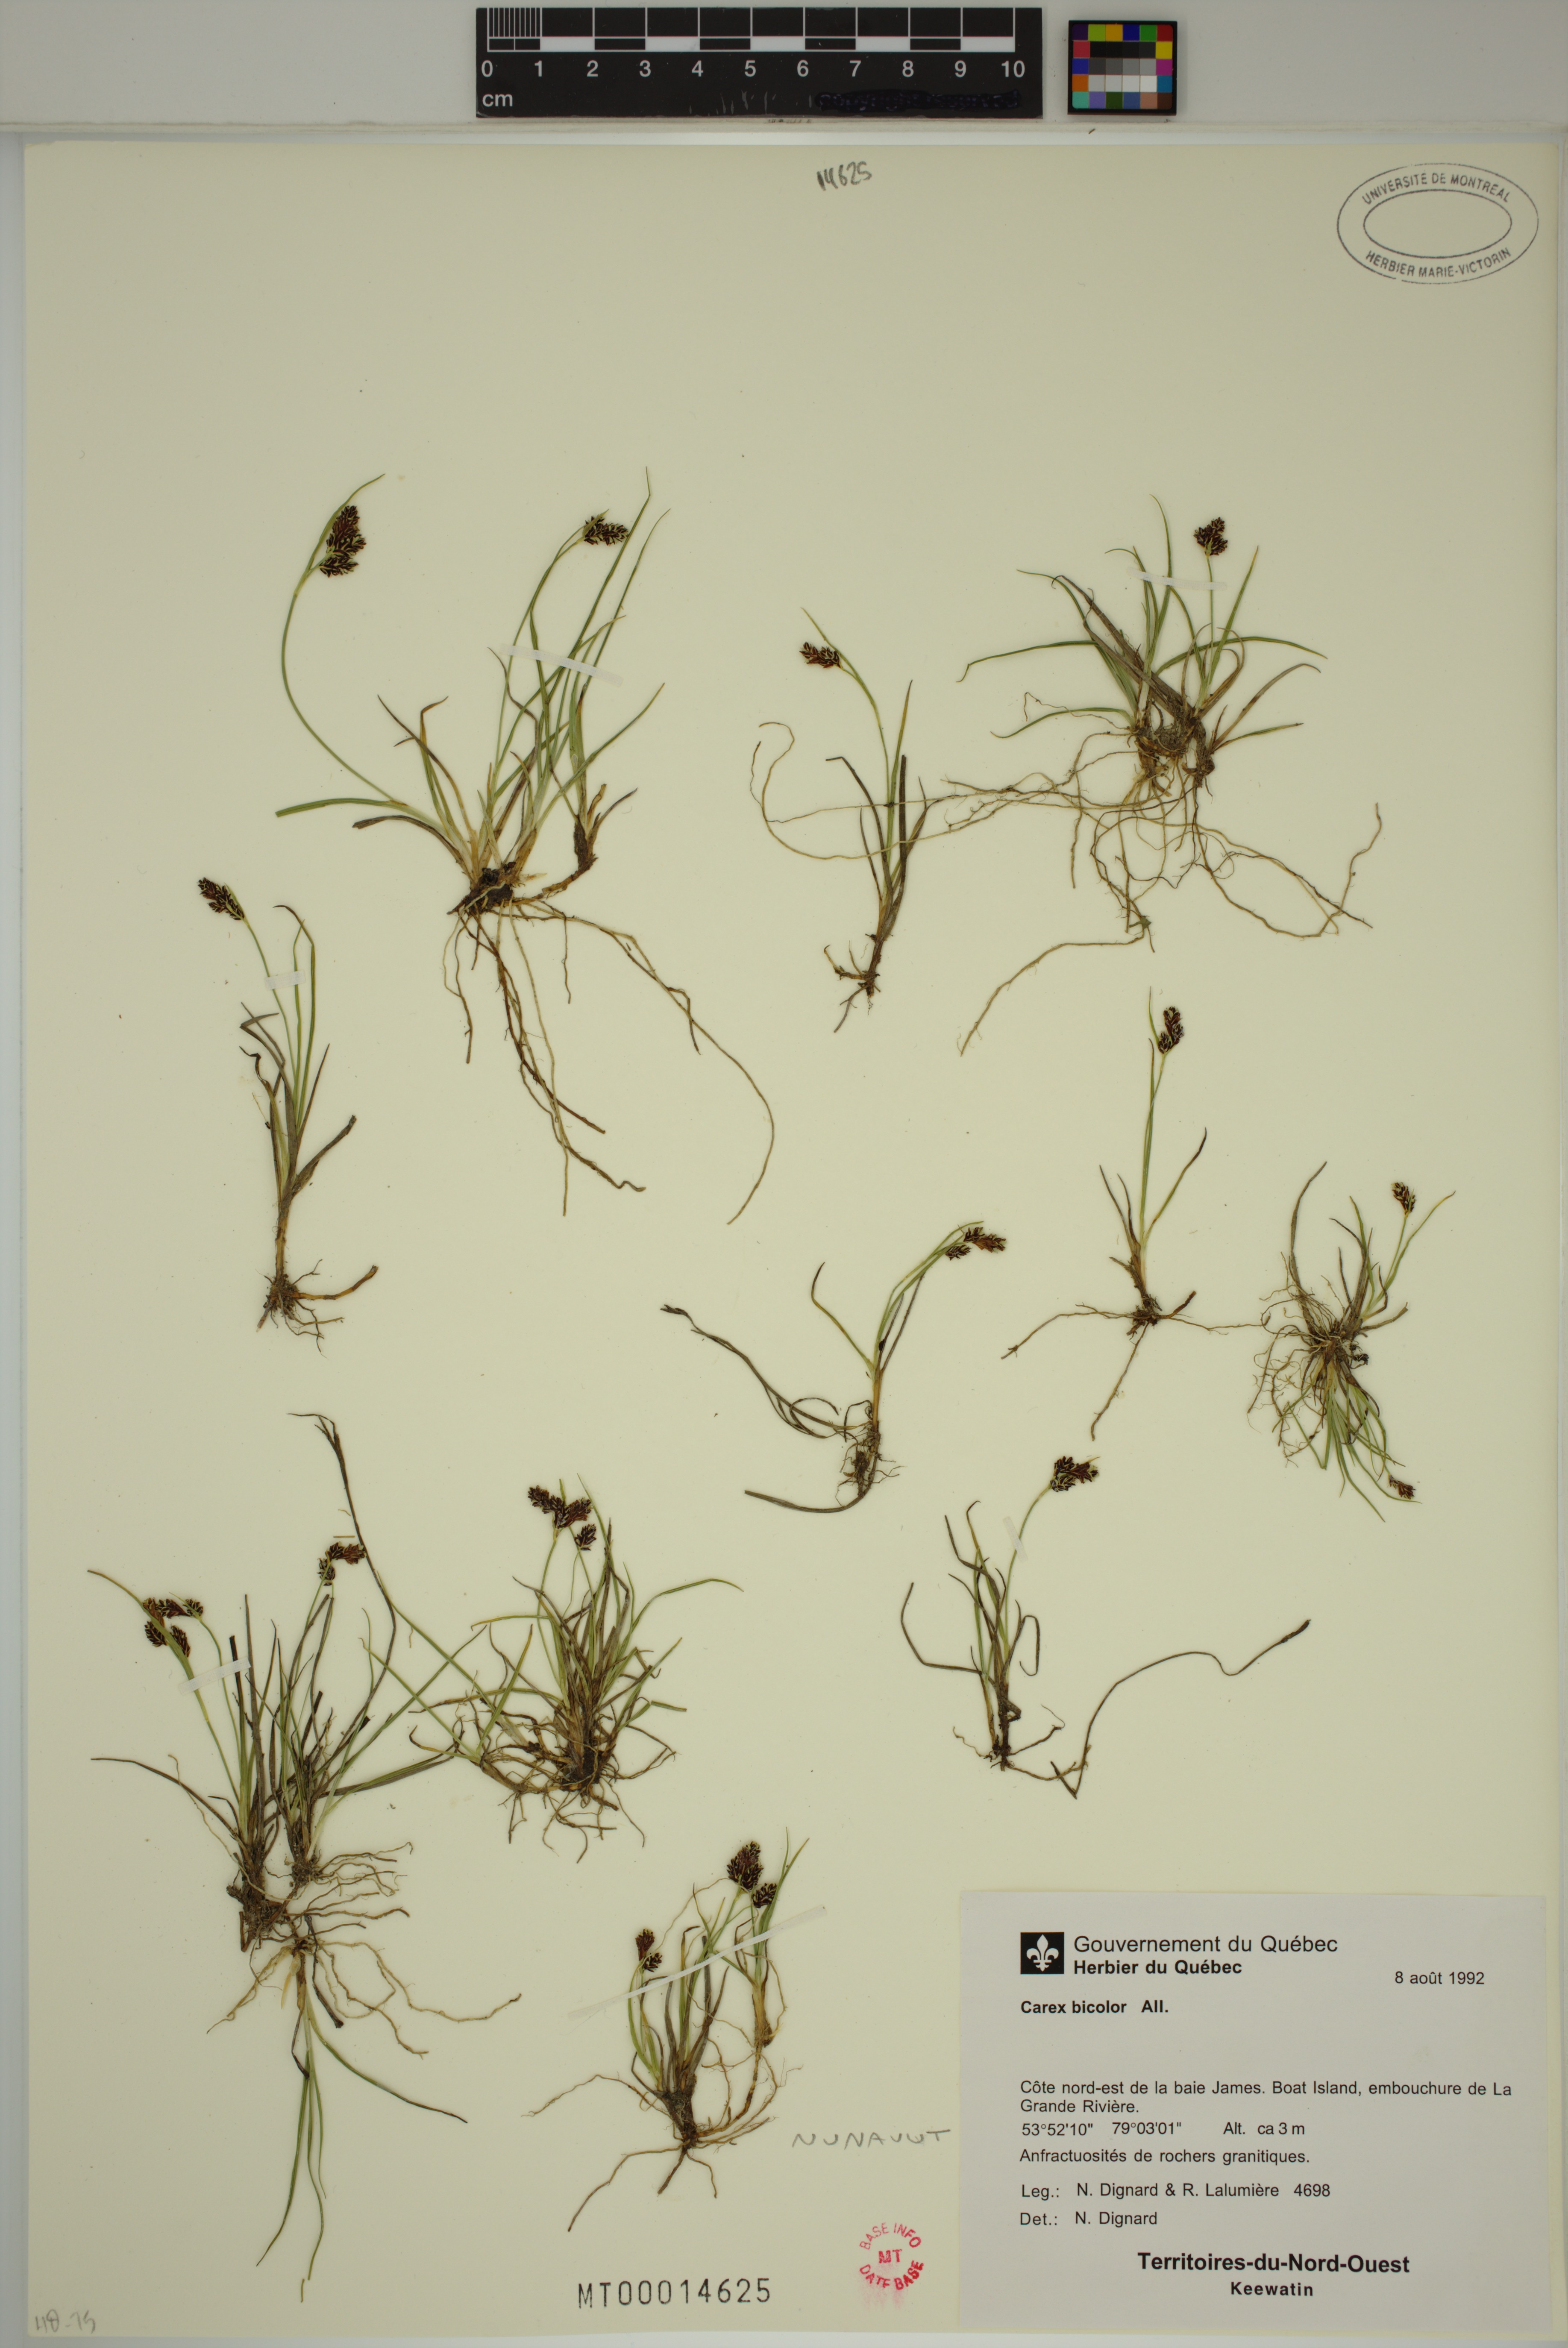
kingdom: Plantae
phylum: Tracheophyta
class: Liliopsida
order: Poales
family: Cyperaceae
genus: Carex
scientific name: Carex bicolor
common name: Bicoloured sedge
